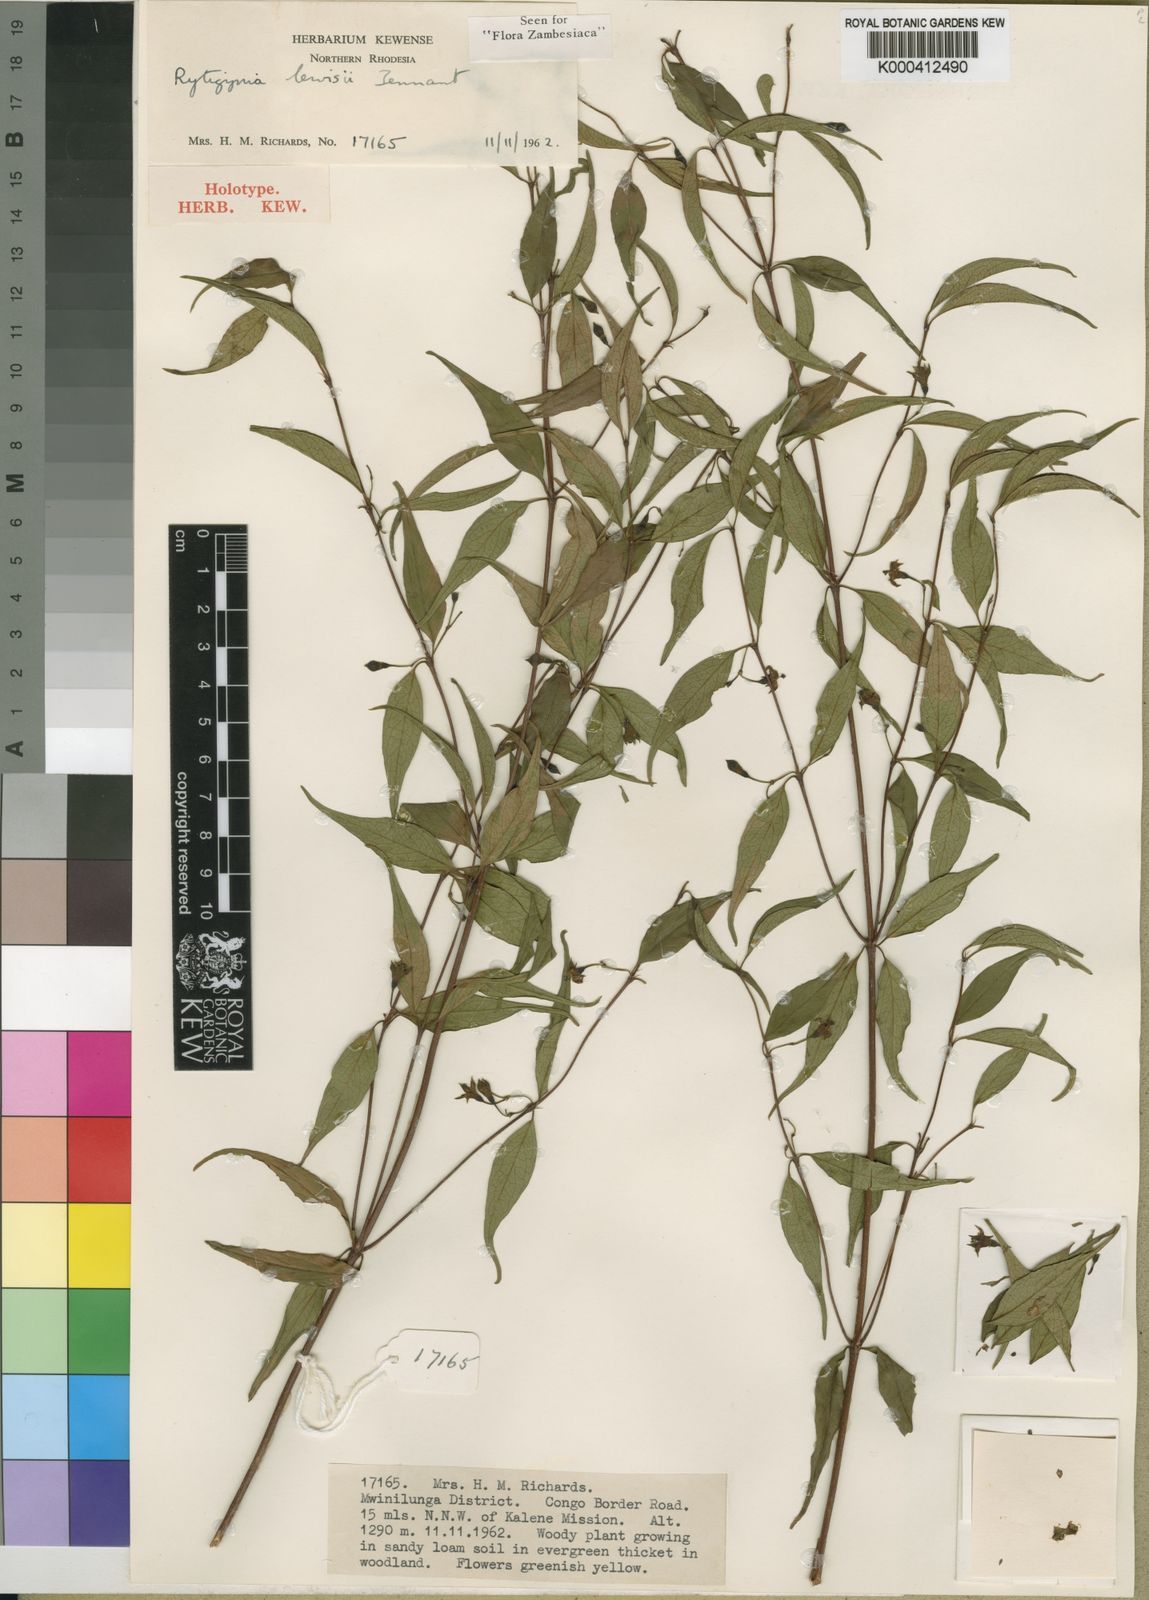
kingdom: Plantae
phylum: Tracheophyta
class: Magnoliopsida
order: Gentianales
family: Rubiaceae
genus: Rytigynia
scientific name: Rytigynia lewisii
